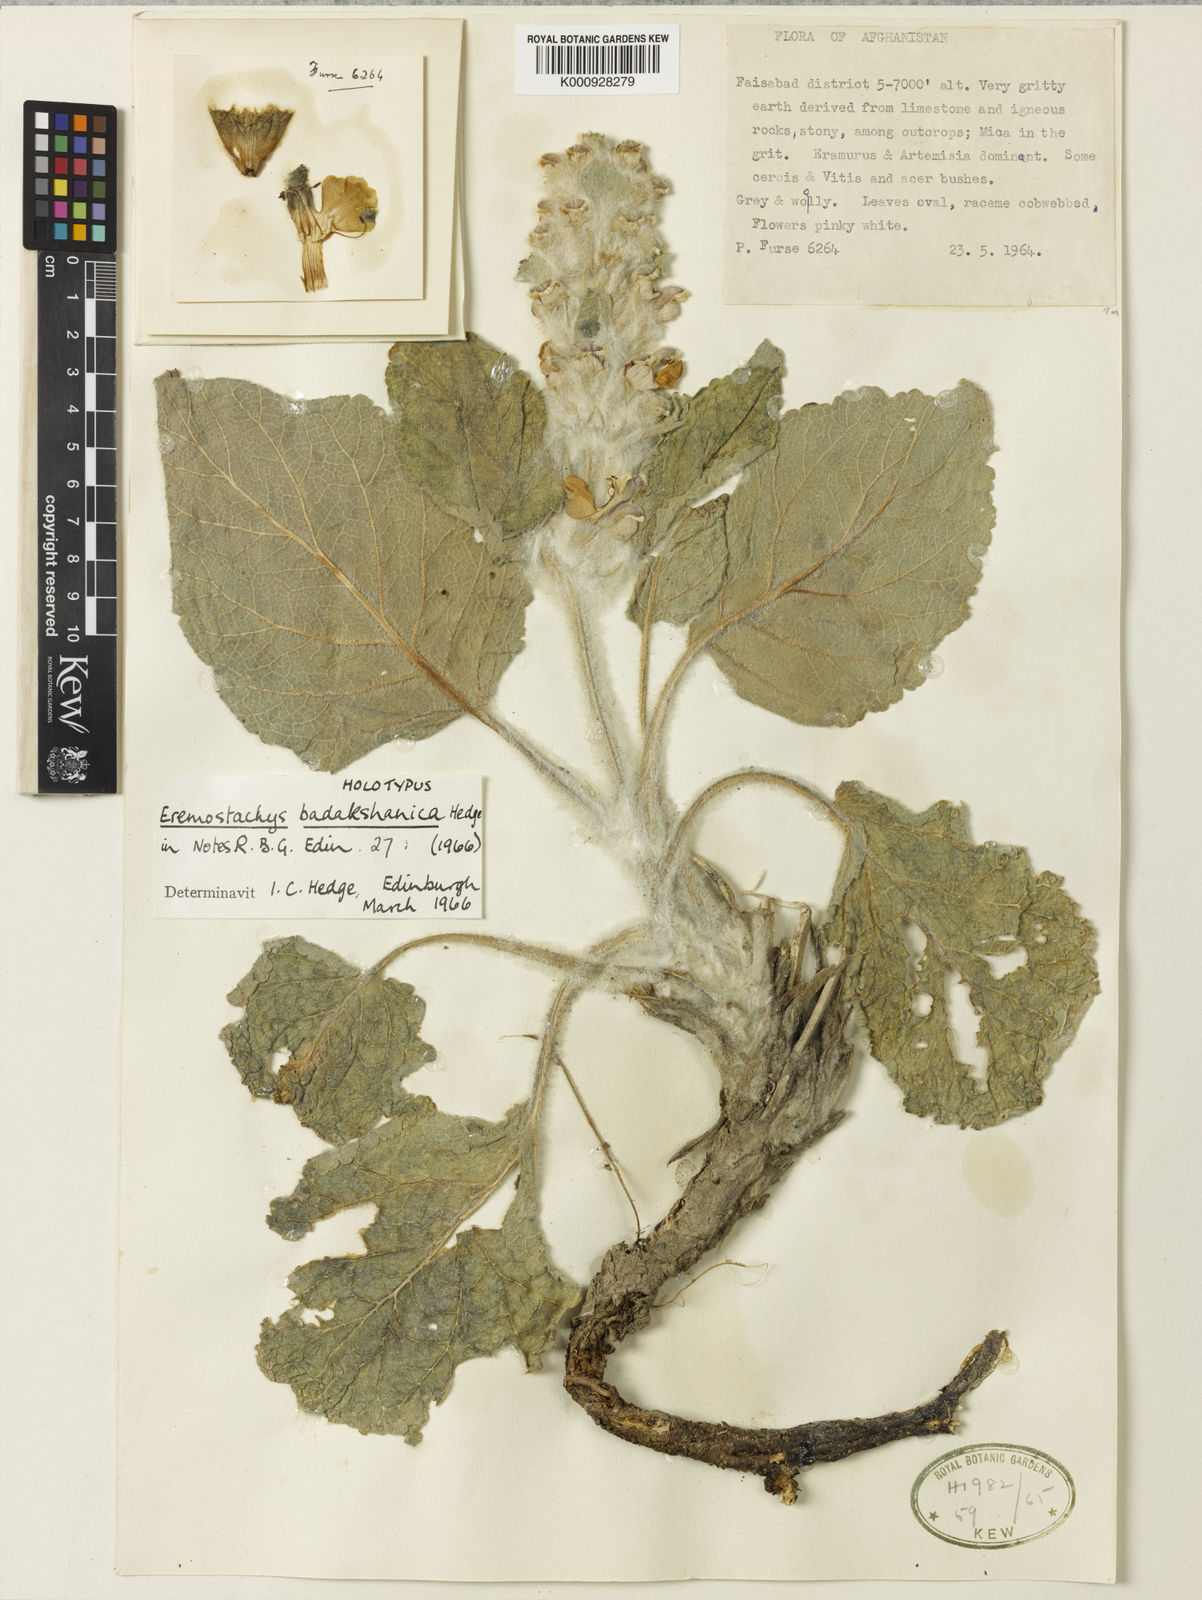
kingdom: Plantae
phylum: Tracheophyta
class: Magnoliopsida
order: Lamiales
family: Lamiaceae
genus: Phlomoides
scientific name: Phlomoides badakshanica
